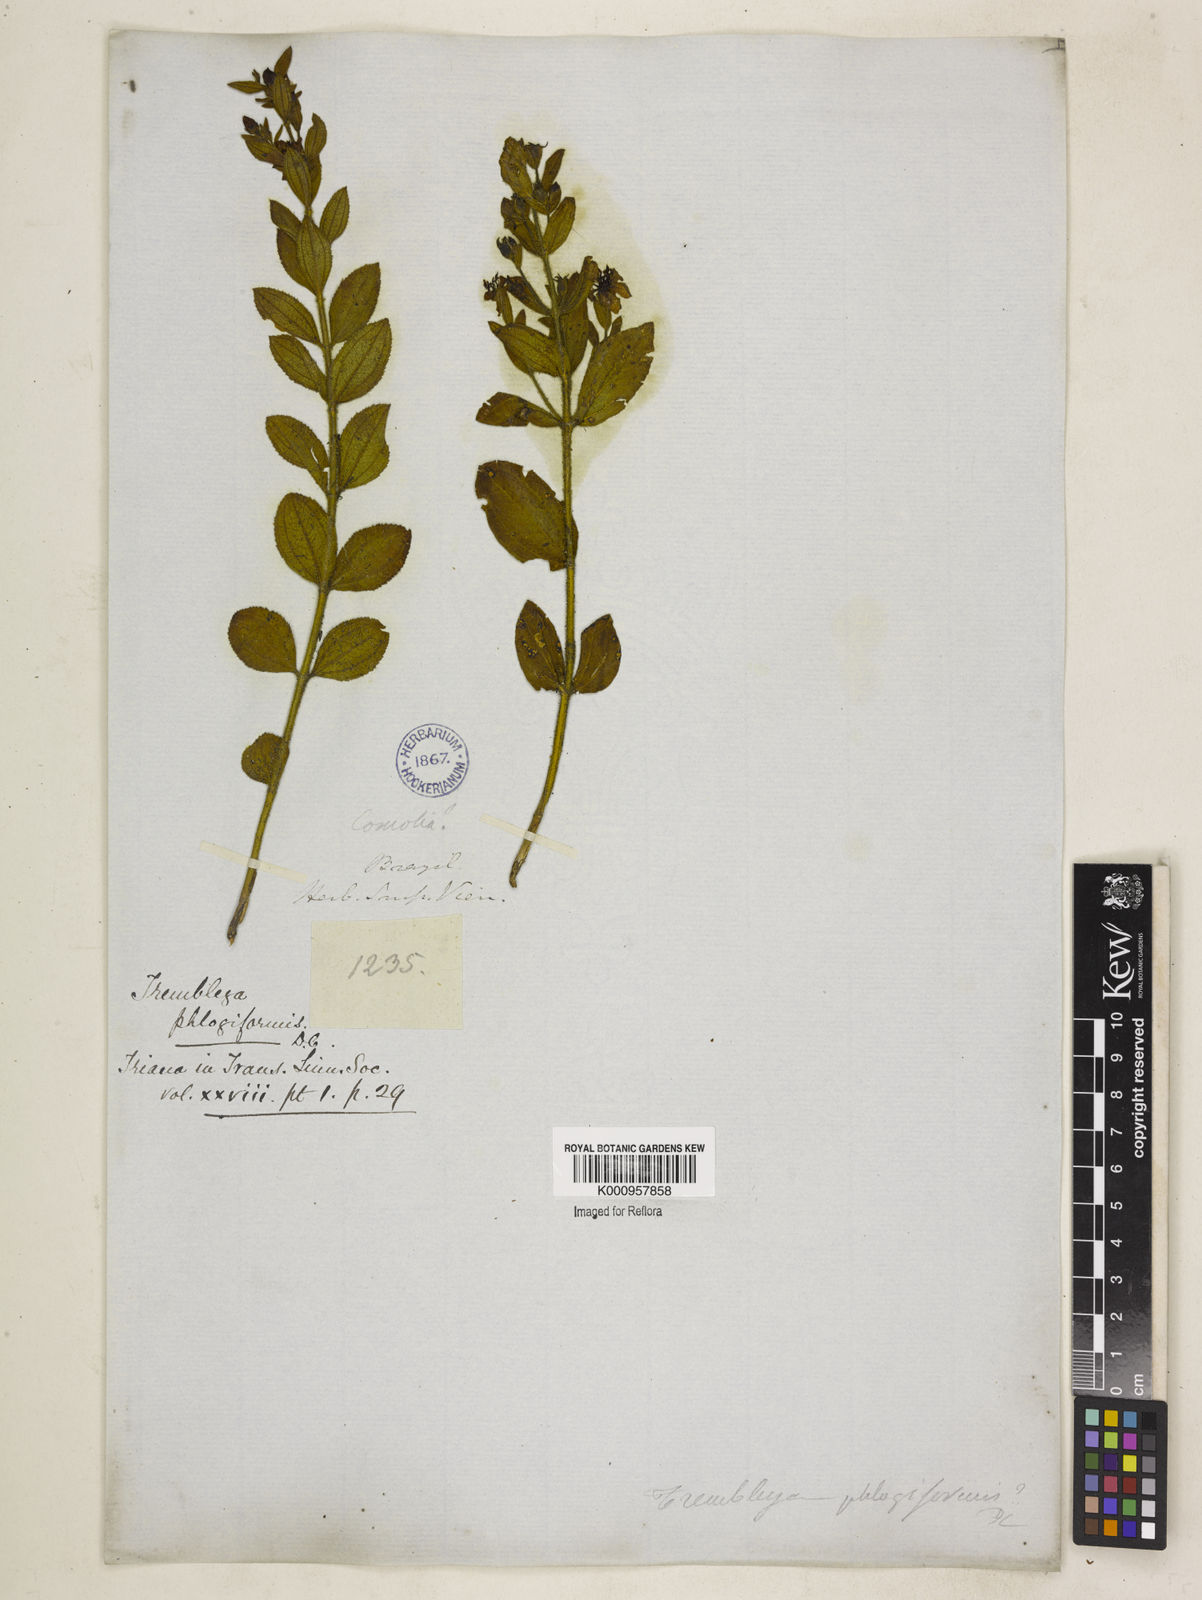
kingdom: Plantae
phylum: Tracheophyta
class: Magnoliopsida
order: Myrtales
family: Melastomataceae
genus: Microlicia
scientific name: Microlicia phlogiformis
